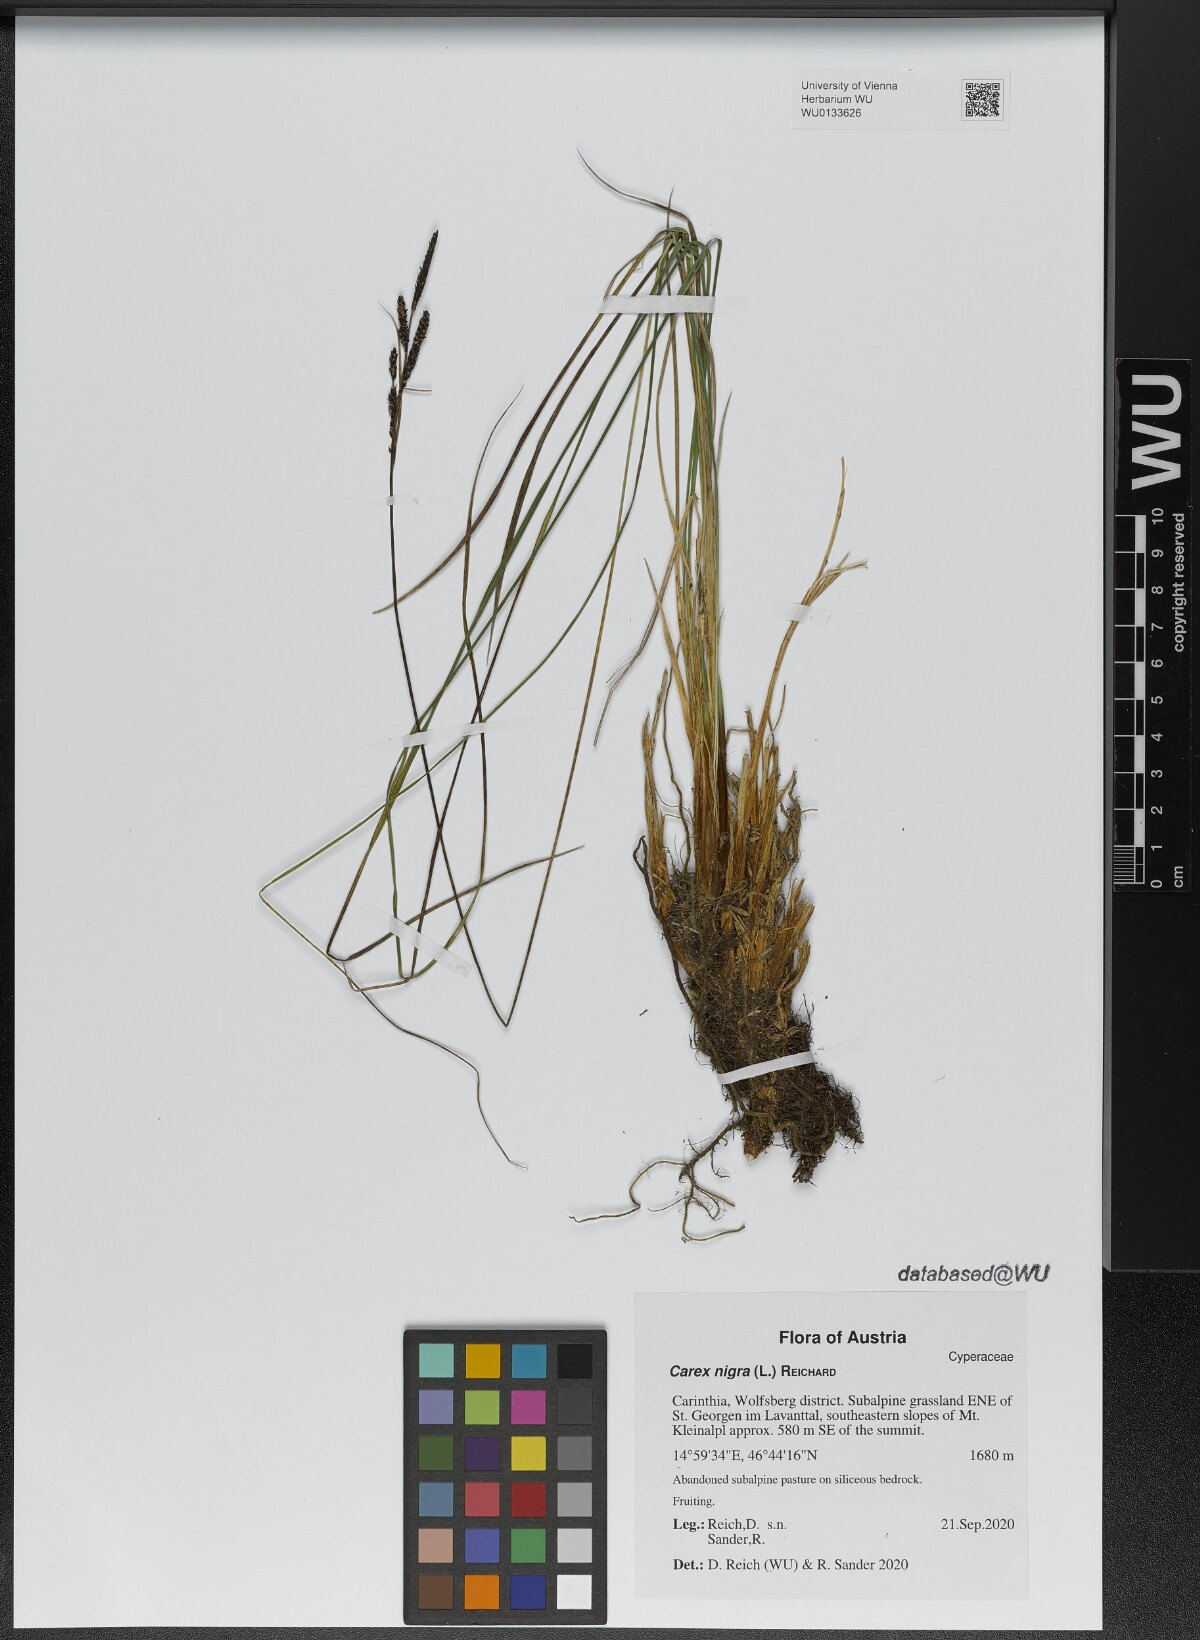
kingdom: Plantae
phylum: Tracheophyta
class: Liliopsida
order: Poales
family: Cyperaceae
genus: Carex
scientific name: Carex nigra
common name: Common sedge
